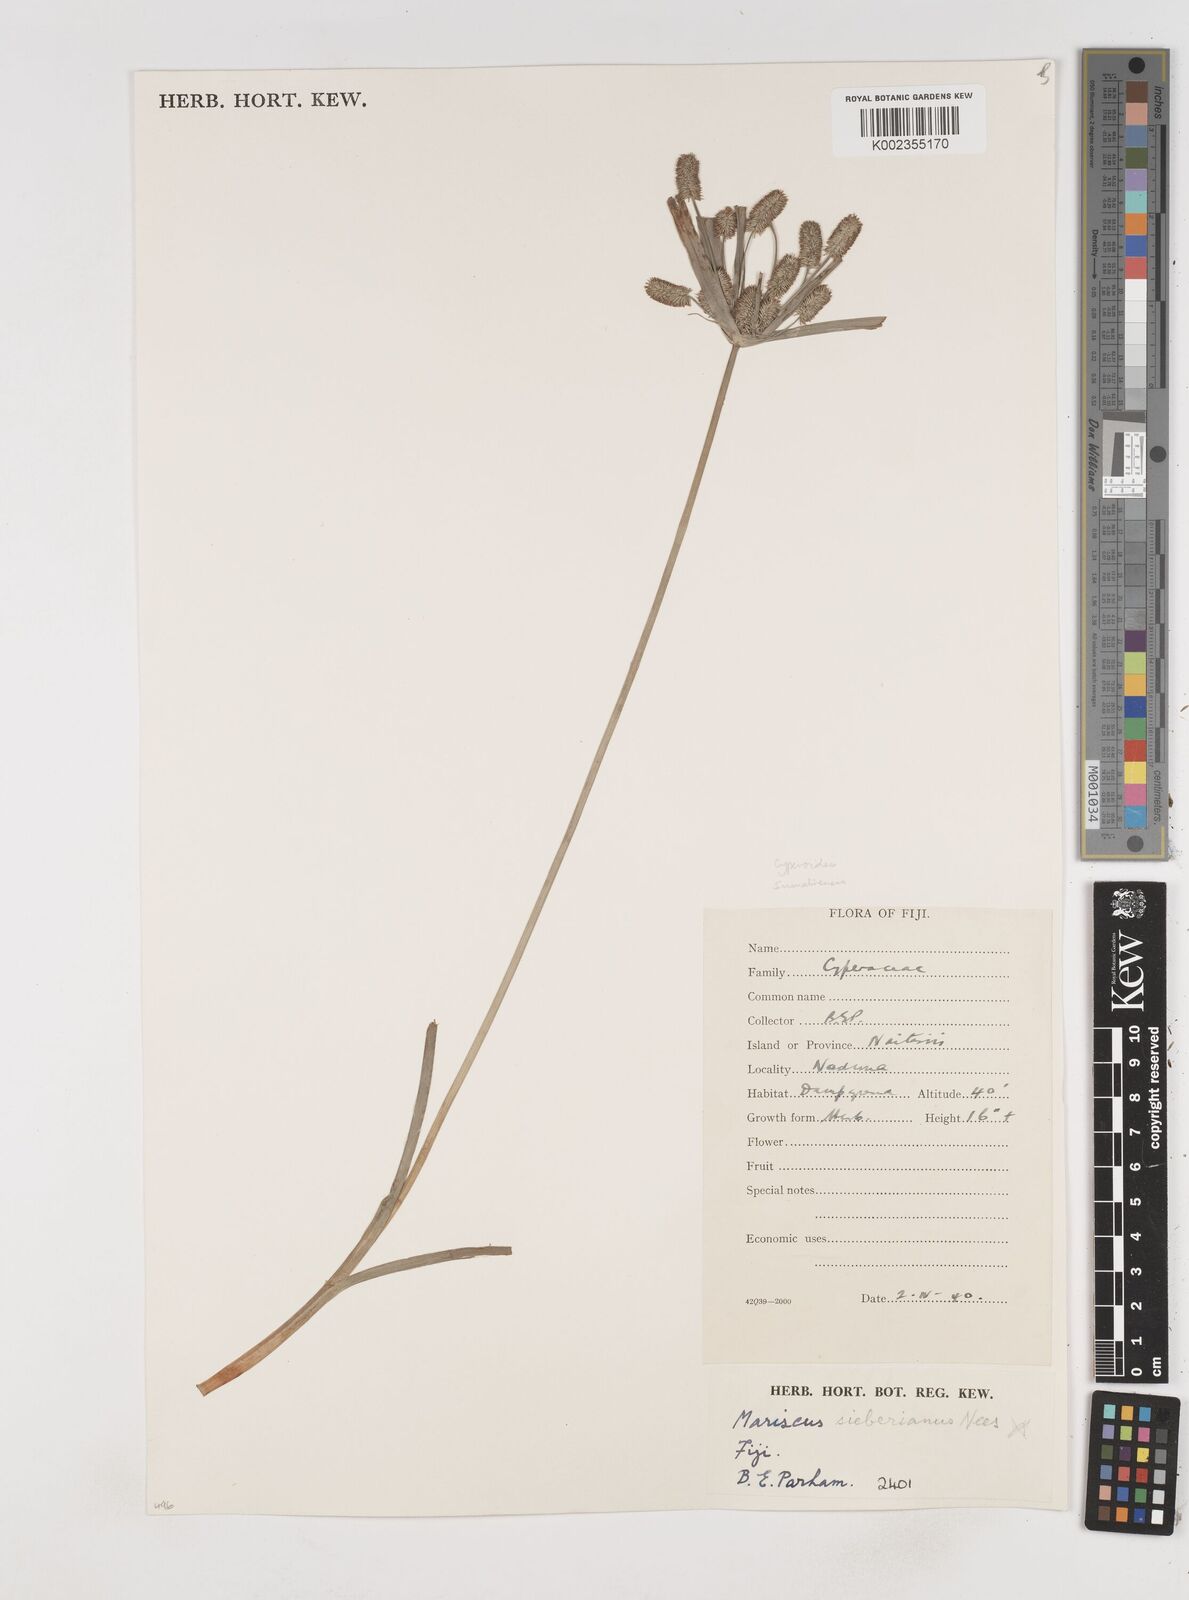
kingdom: Plantae
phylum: Tracheophyta
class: Liliopsida
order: Poales
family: Cyperaceae
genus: Cyperus
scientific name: Cyperus cyperoides
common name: Pacific island flat sedge
